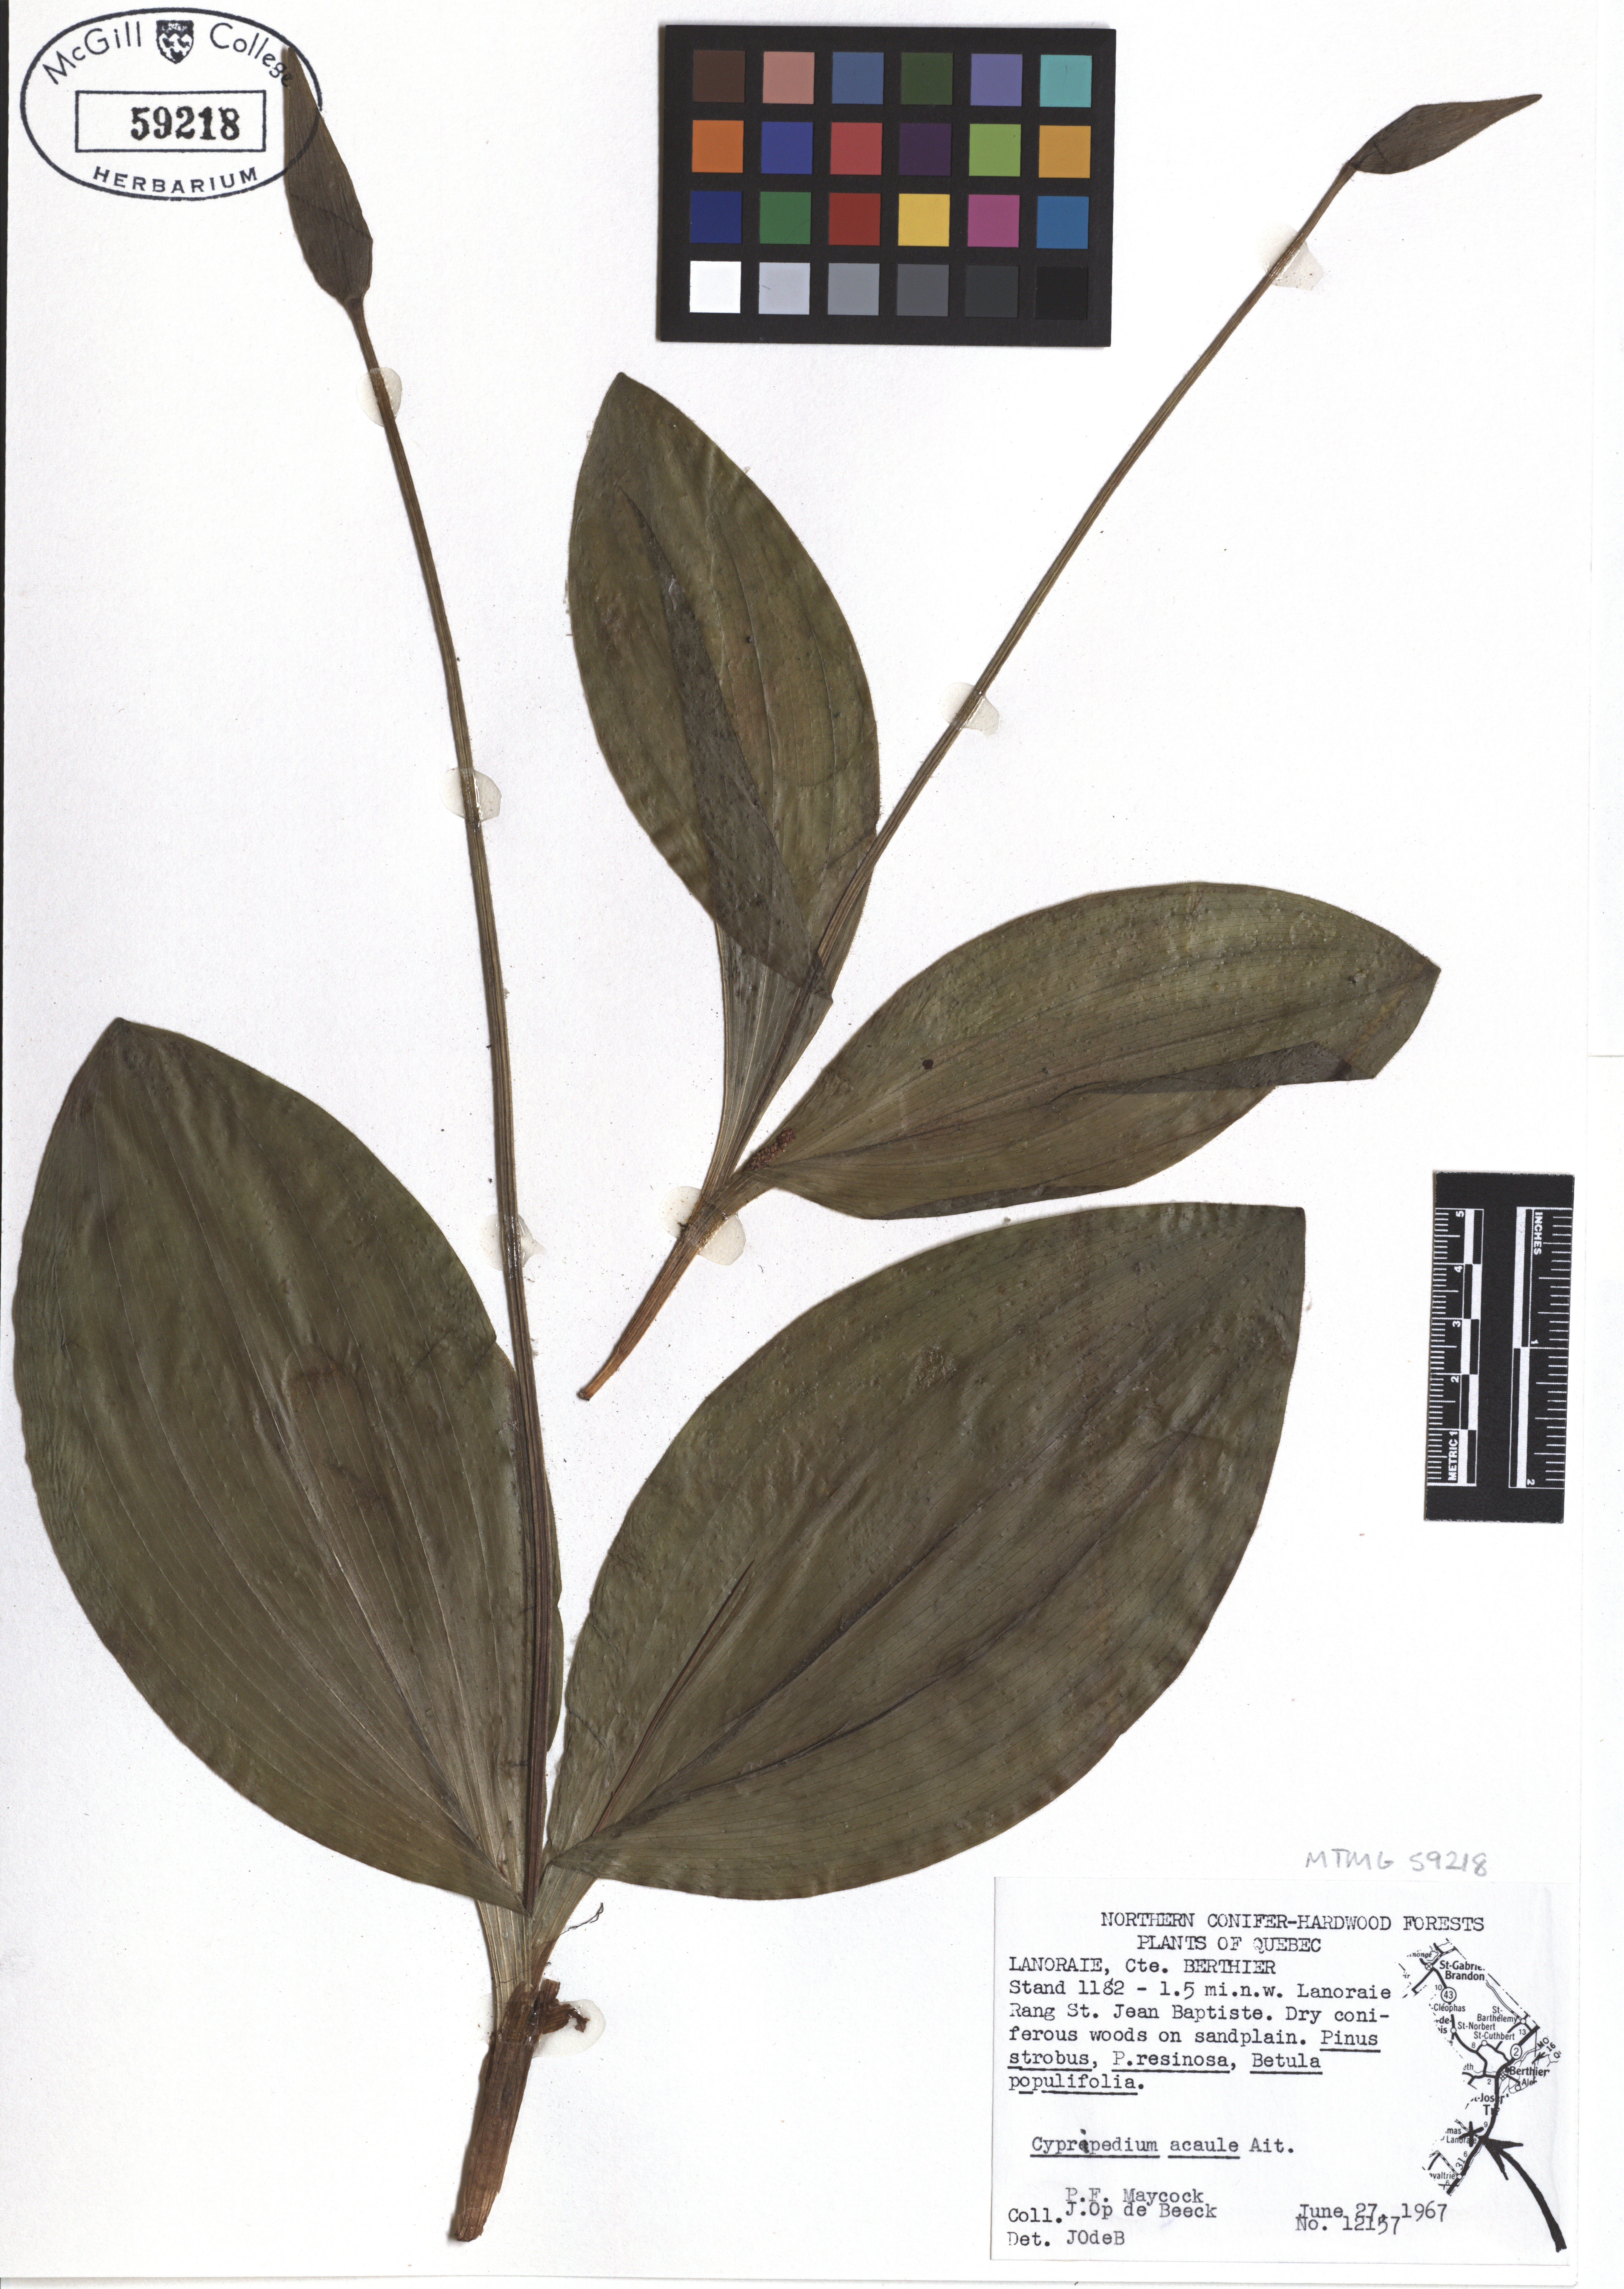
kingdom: Plantae
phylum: Tracheophyta
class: Liliopsida
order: Asparagales
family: Orchidaceae
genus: Cypripedium
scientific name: Cypripedium acaule
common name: Pink lady's-slipper
